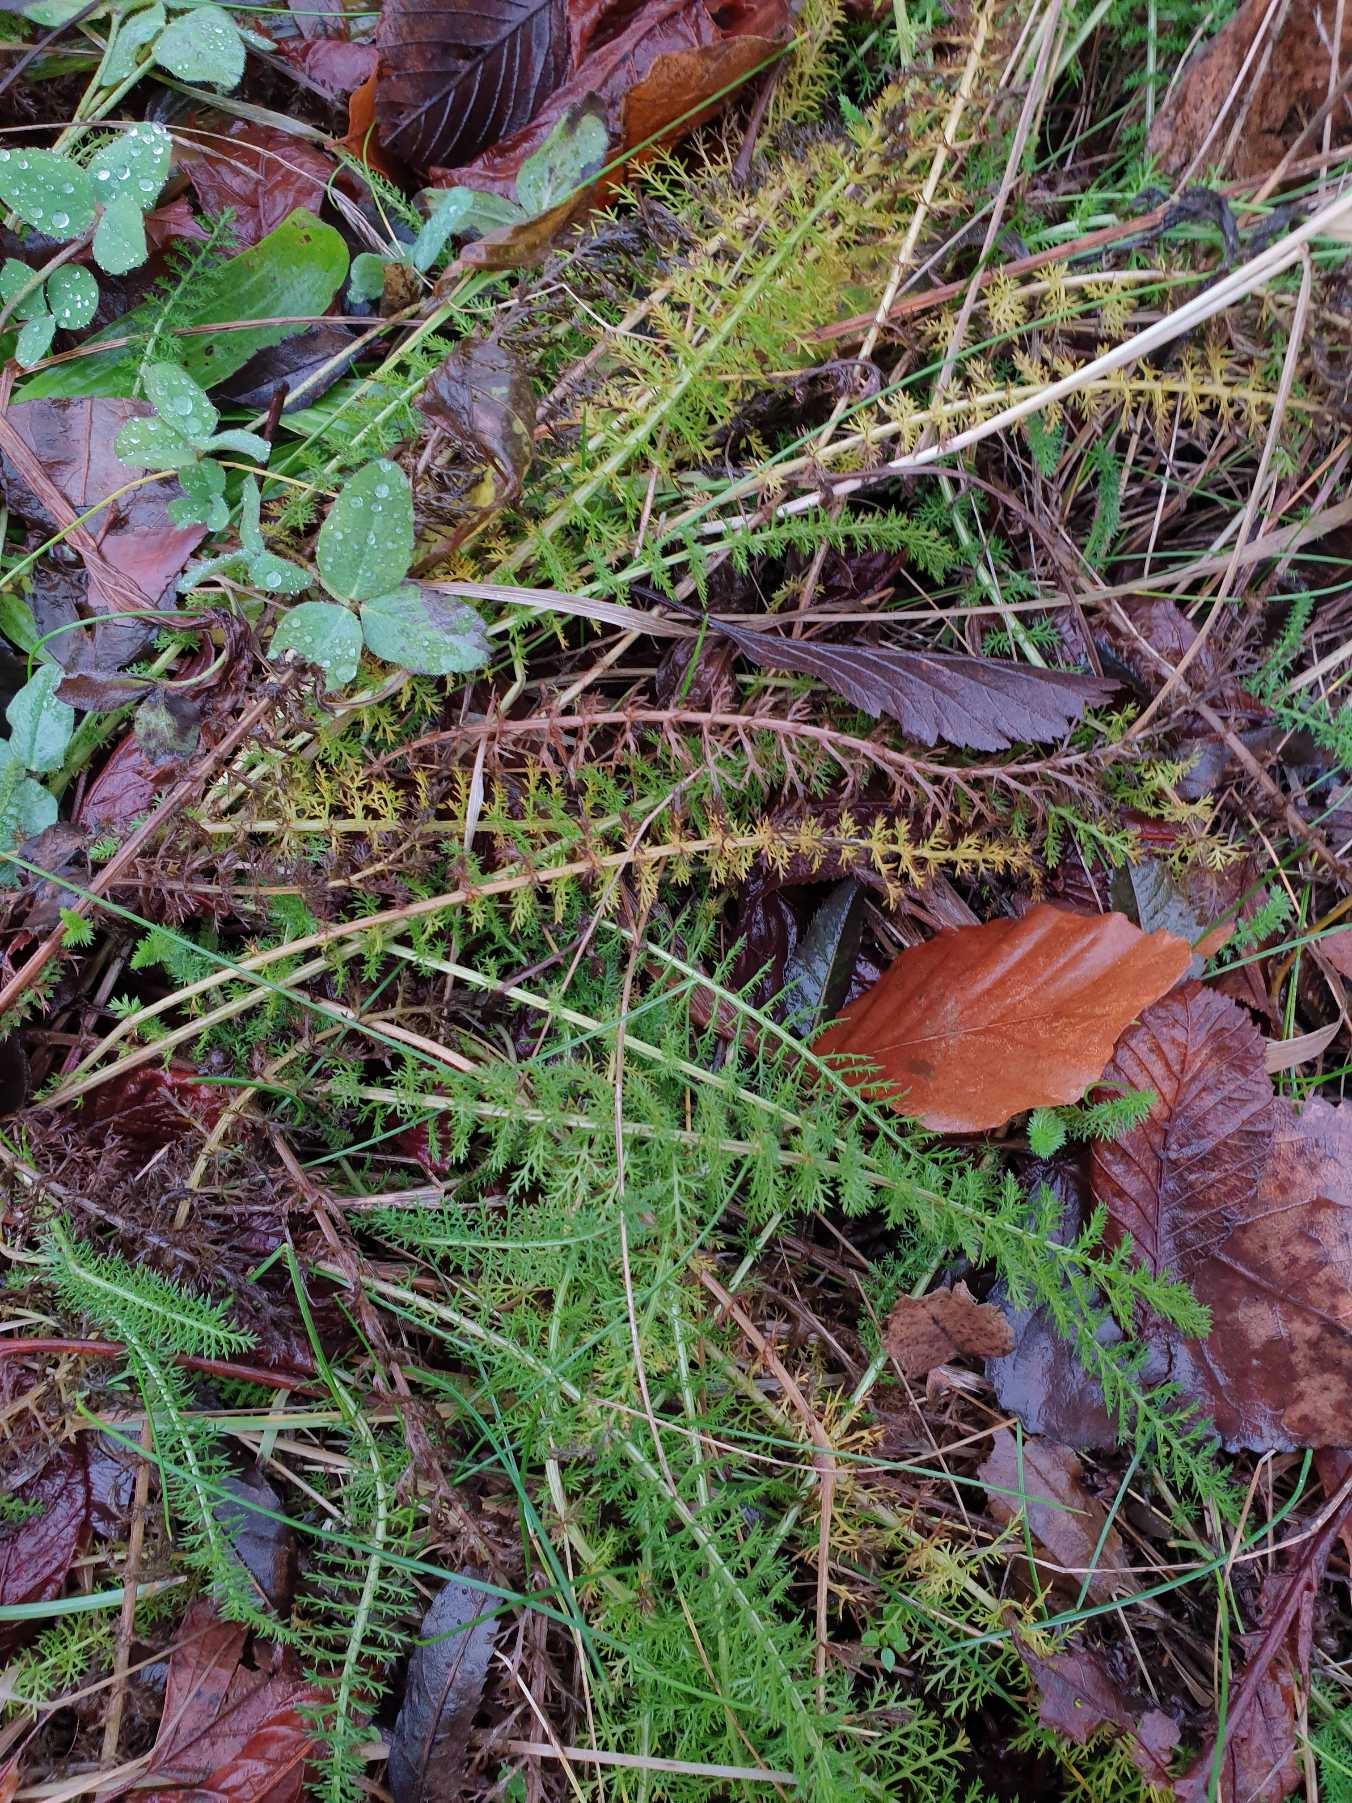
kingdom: Plantae
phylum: Tracheophyta
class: Magnoliopsida
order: Asterales
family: Asteraceae
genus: Achillea
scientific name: Achillea millefolium
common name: Almindelig røllike
